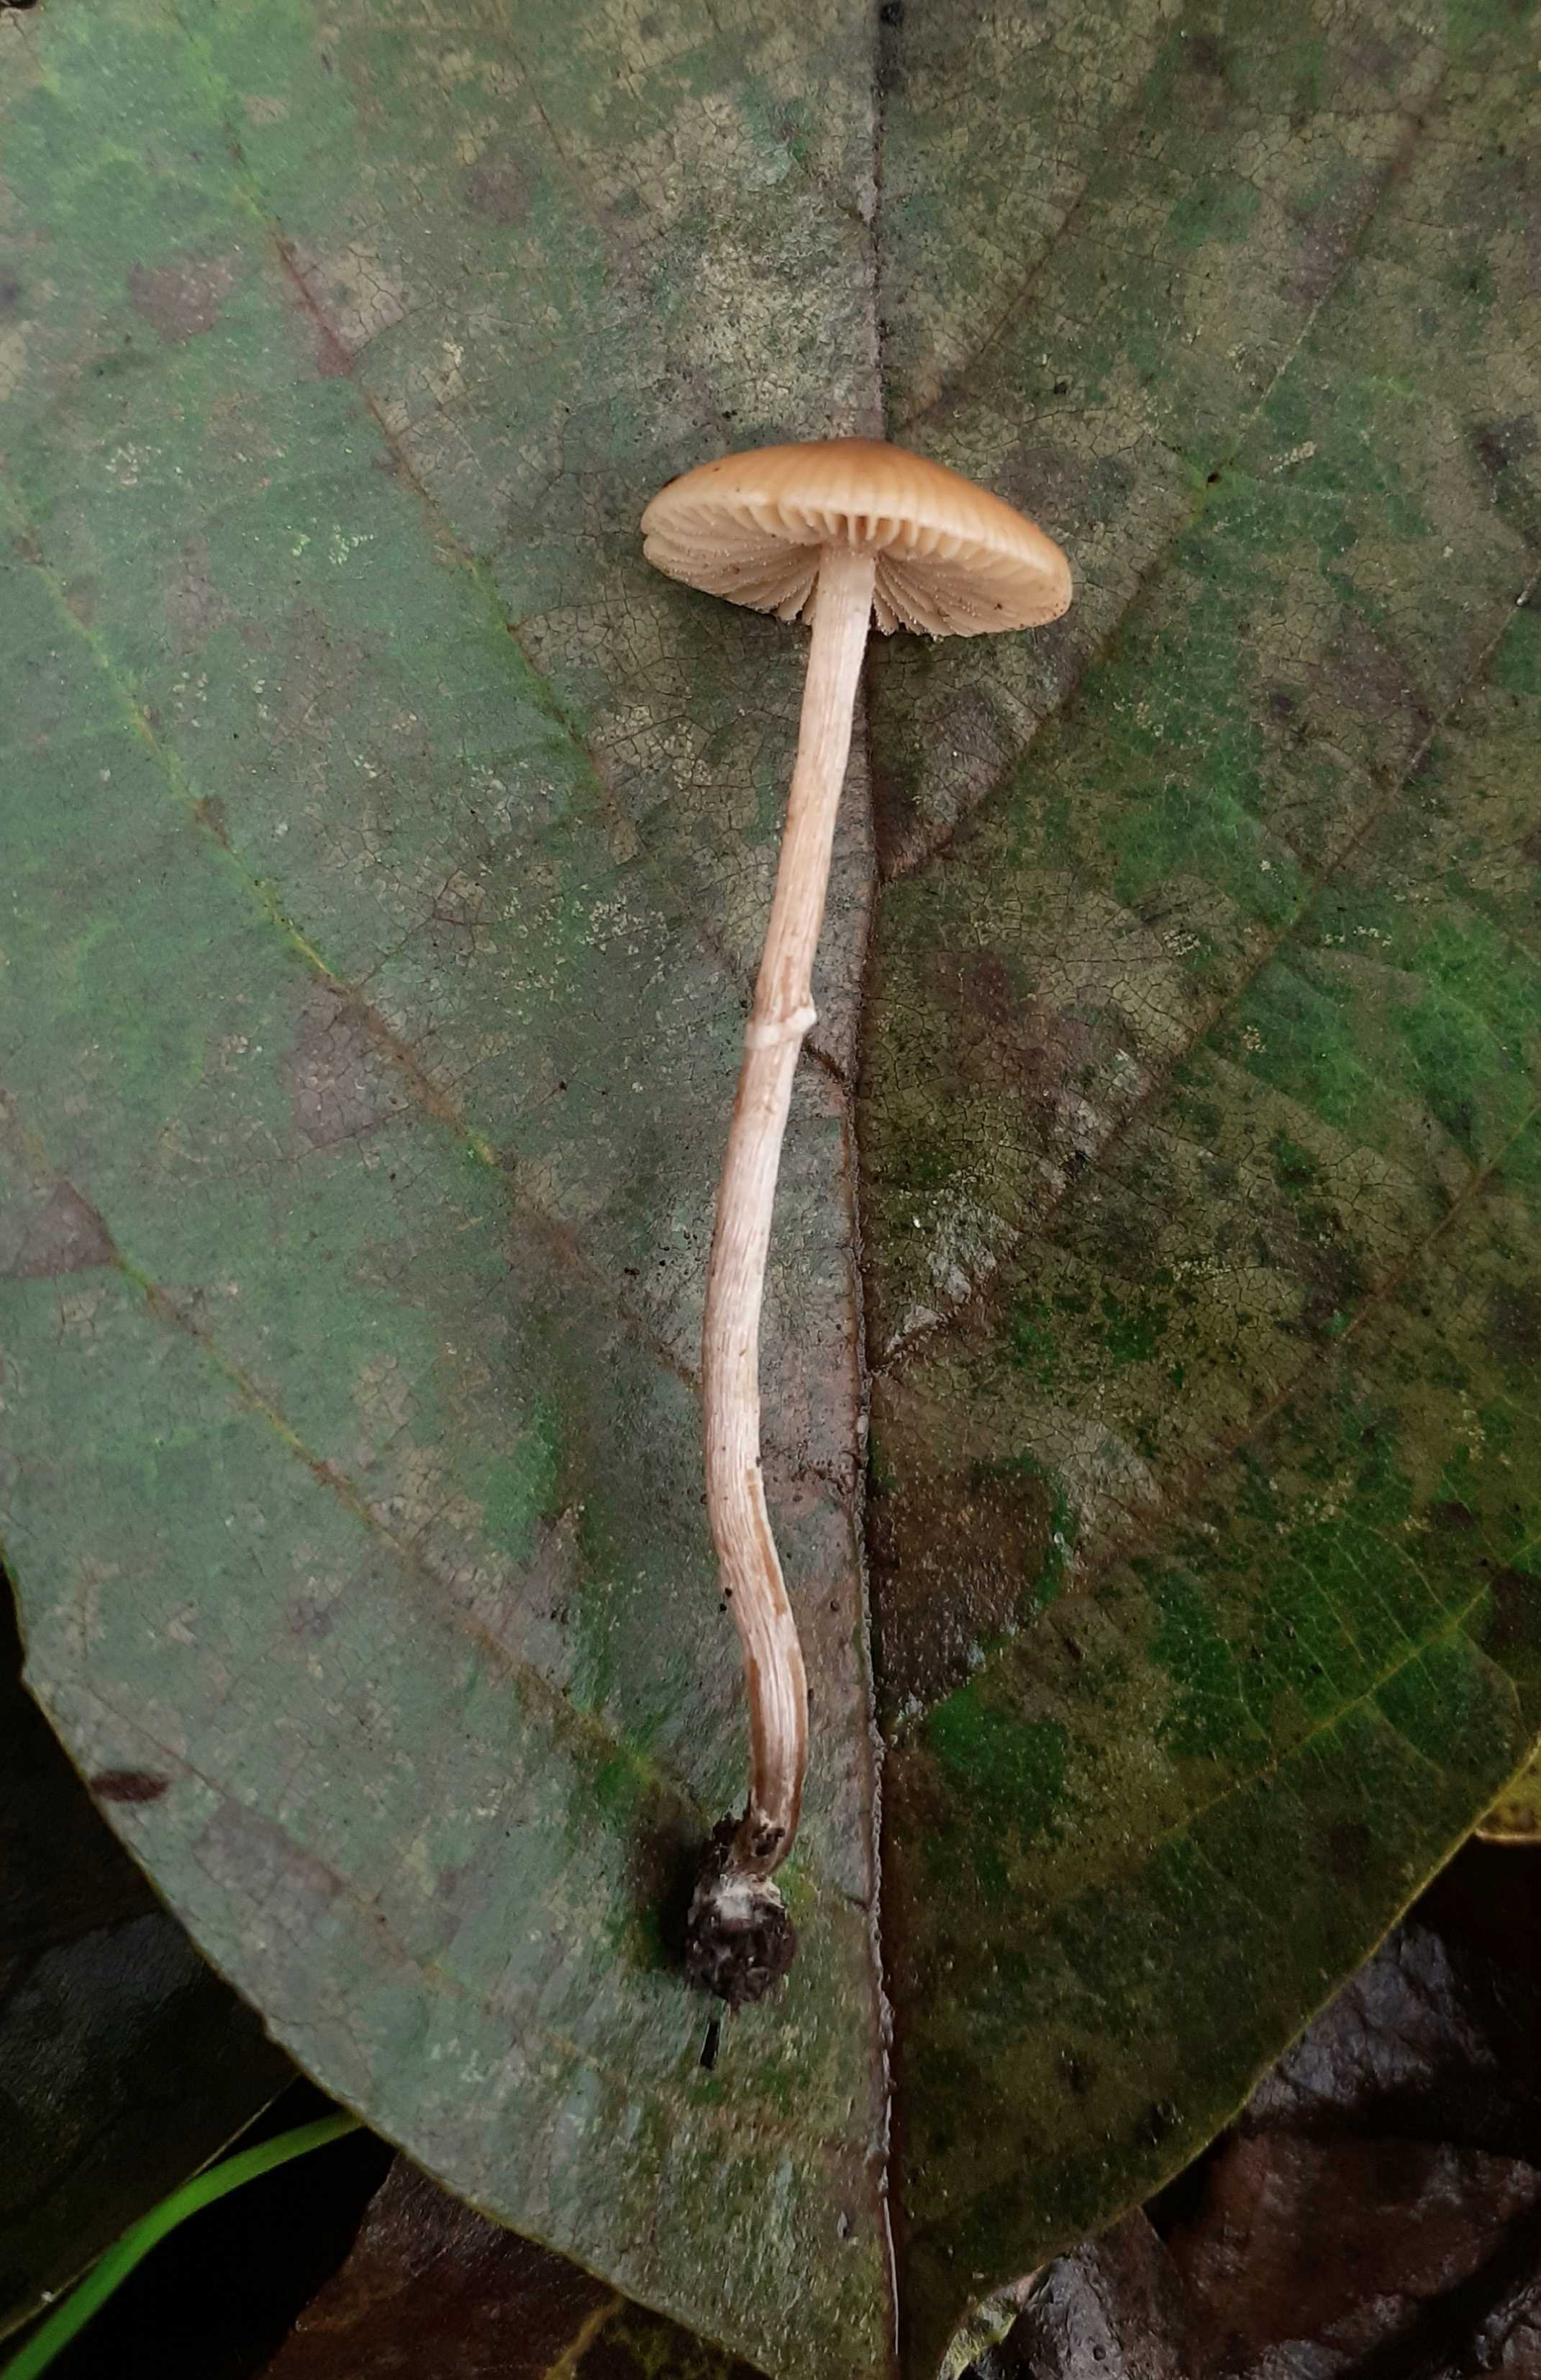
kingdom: Fungi
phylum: Basidiomycota
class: Agaricomycetes
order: Agaricales
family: Bolbitiaceae
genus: Pholiotina
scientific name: Pholiotina
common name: dansehat
